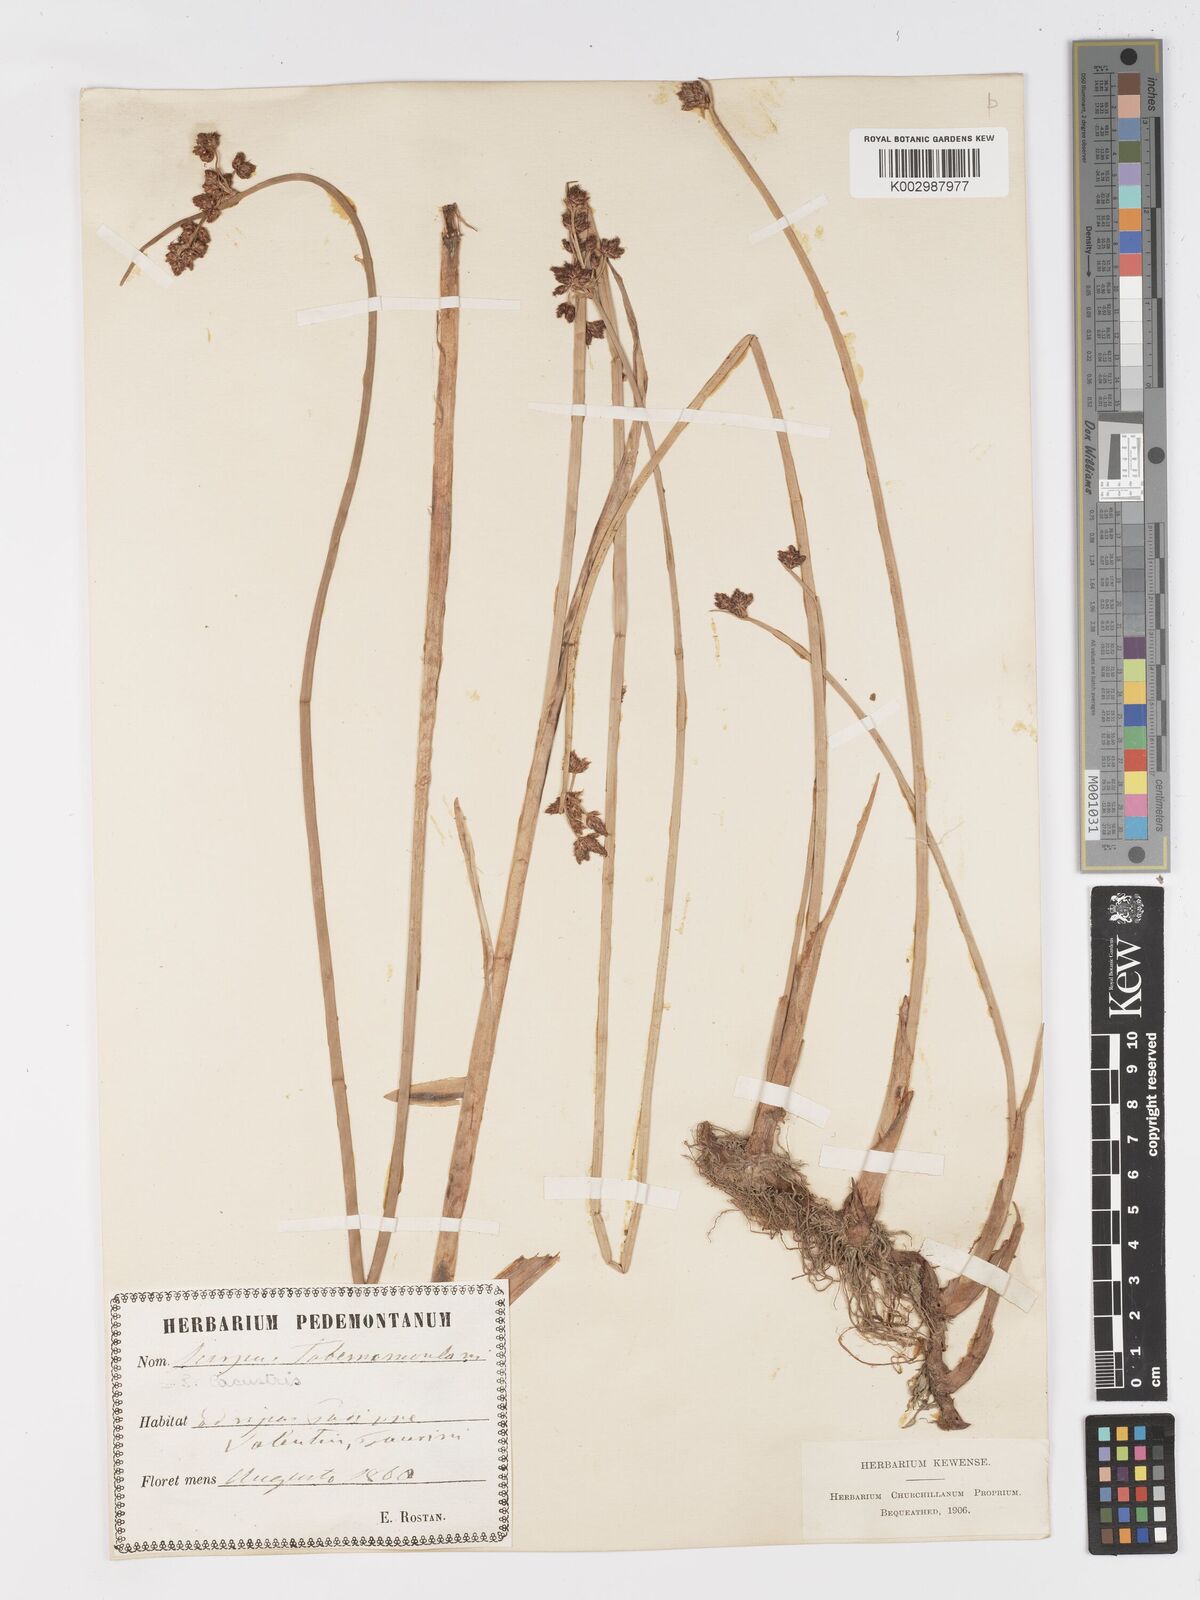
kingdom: Plantae
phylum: Tracheophyta
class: Liliopsida
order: Poales
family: Cyperaceae
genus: Schoenoplectus
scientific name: Schoenoplectus tabernaemontani
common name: Grey club-rush
